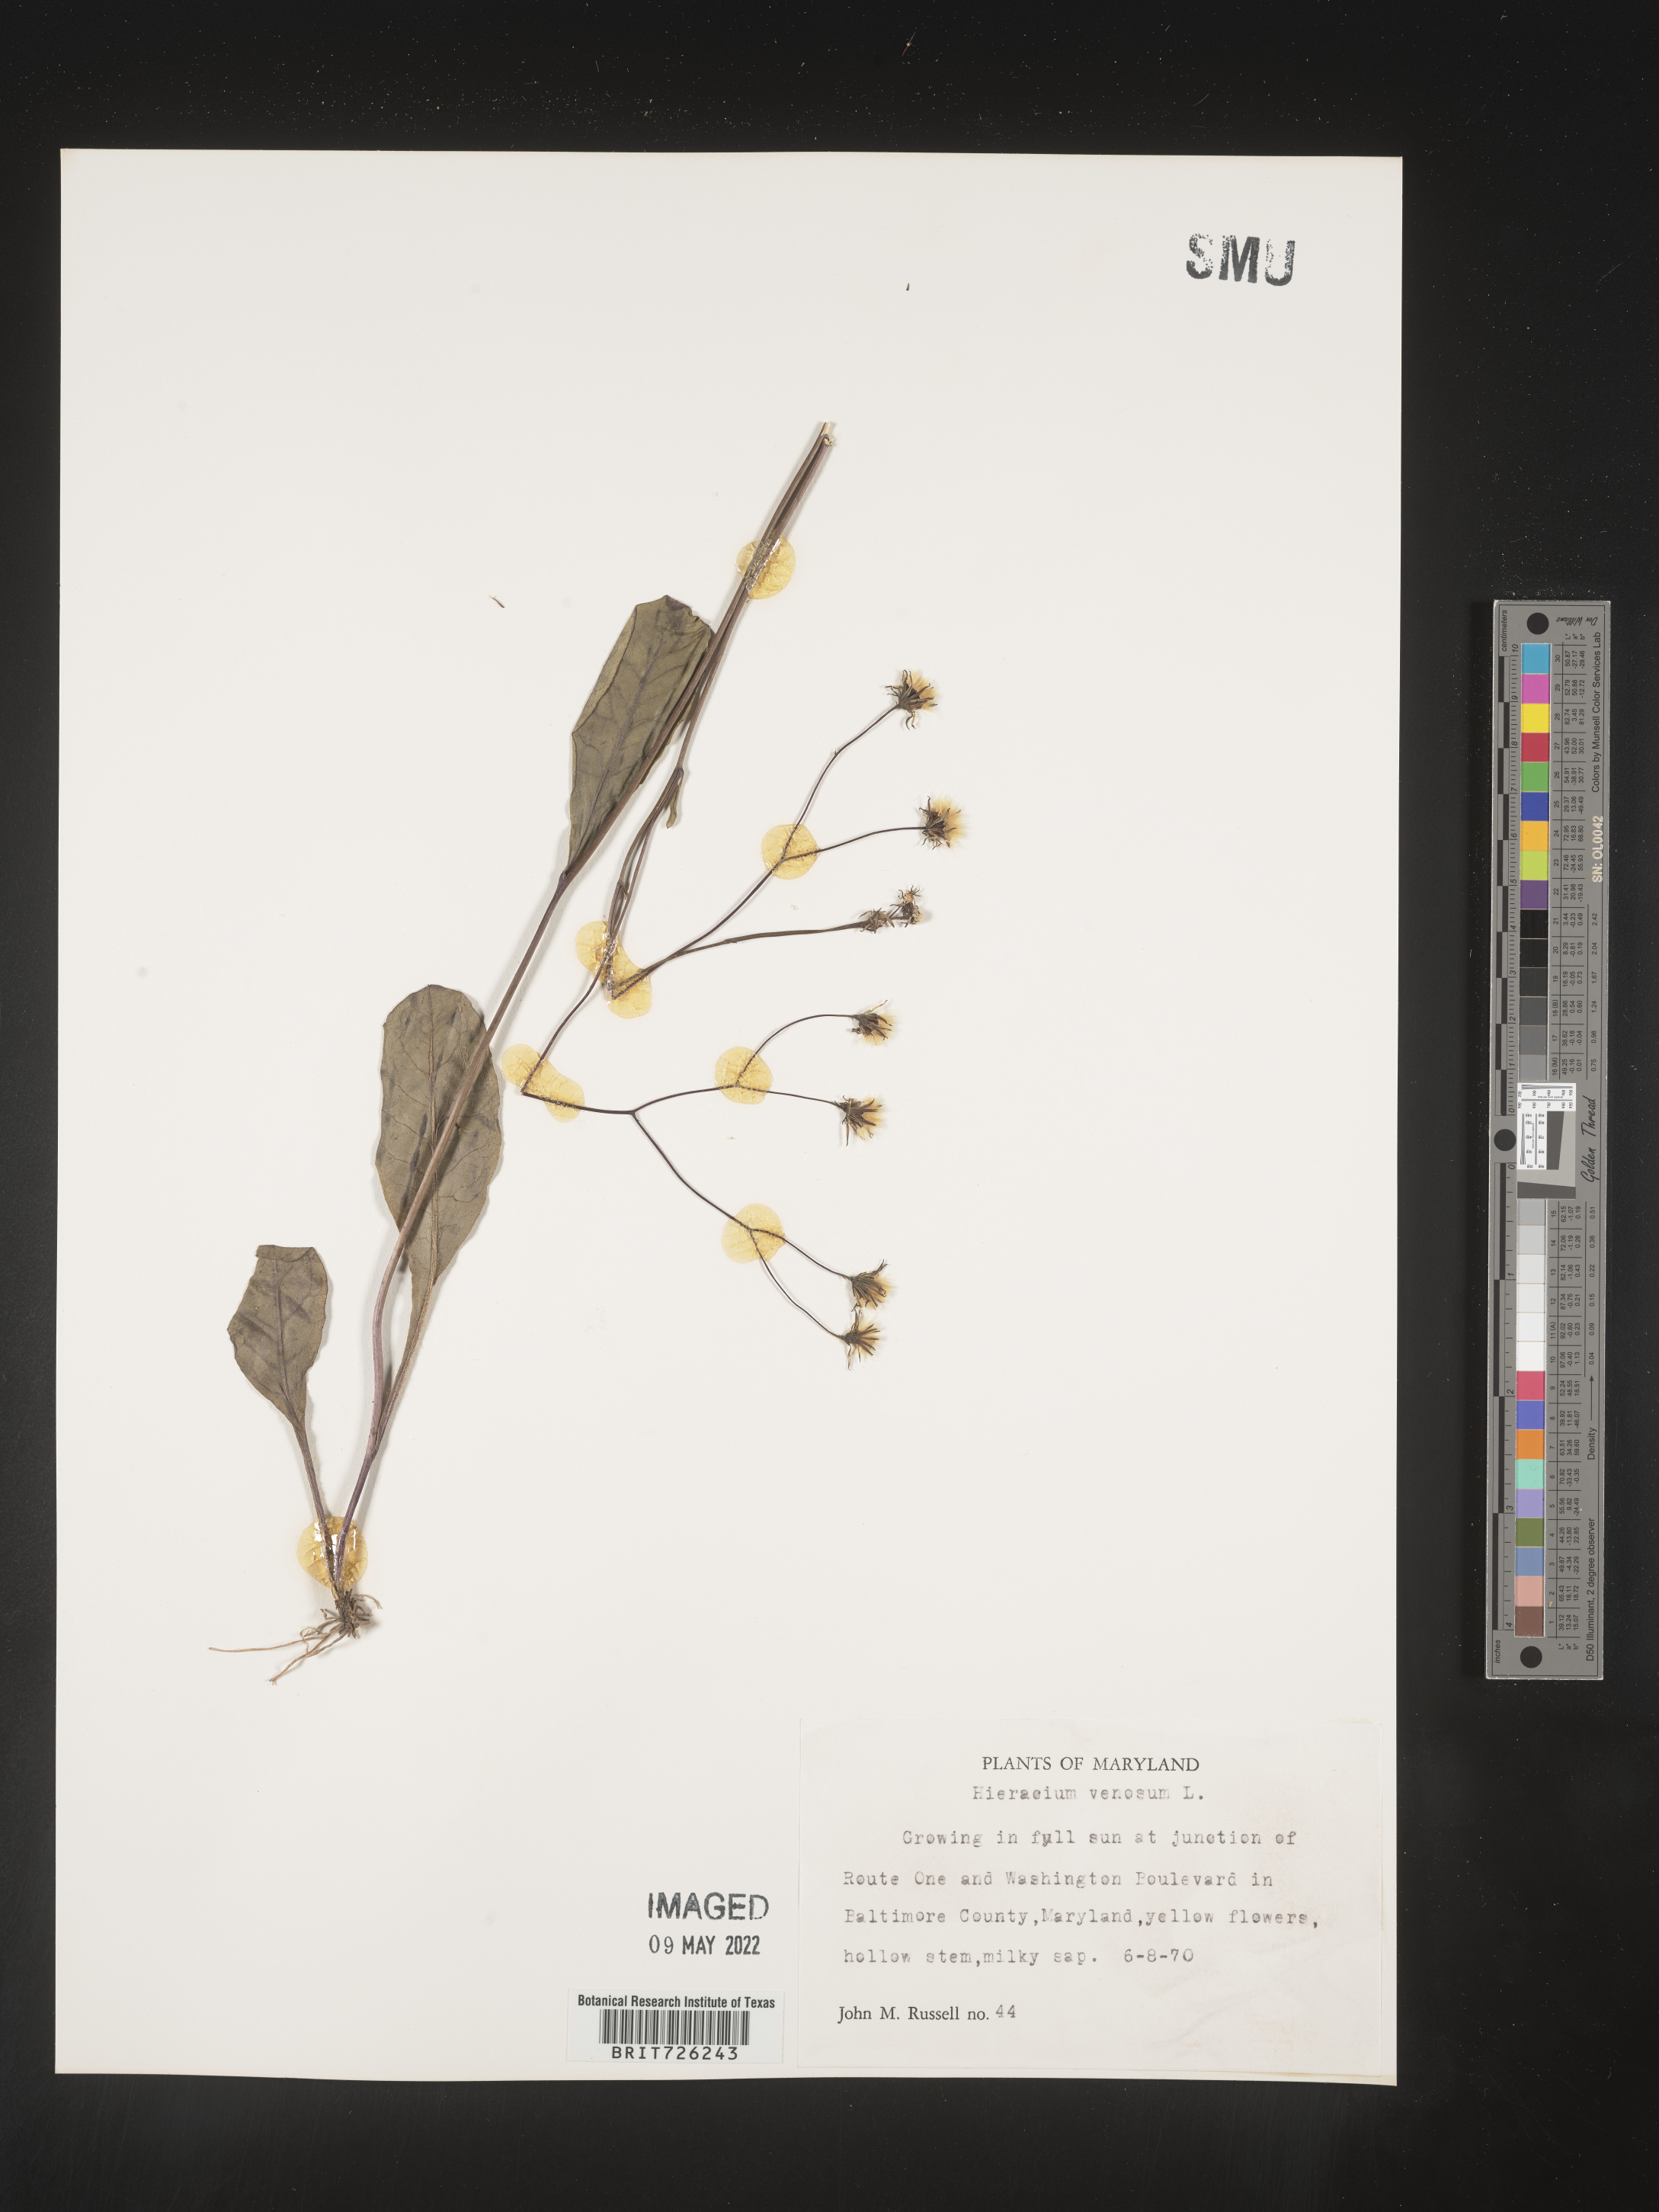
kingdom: Plantae
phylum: Tracheophyta
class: Magnoliopsida
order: Asterales
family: Asteraceae
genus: Hieracium
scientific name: Hieracium
